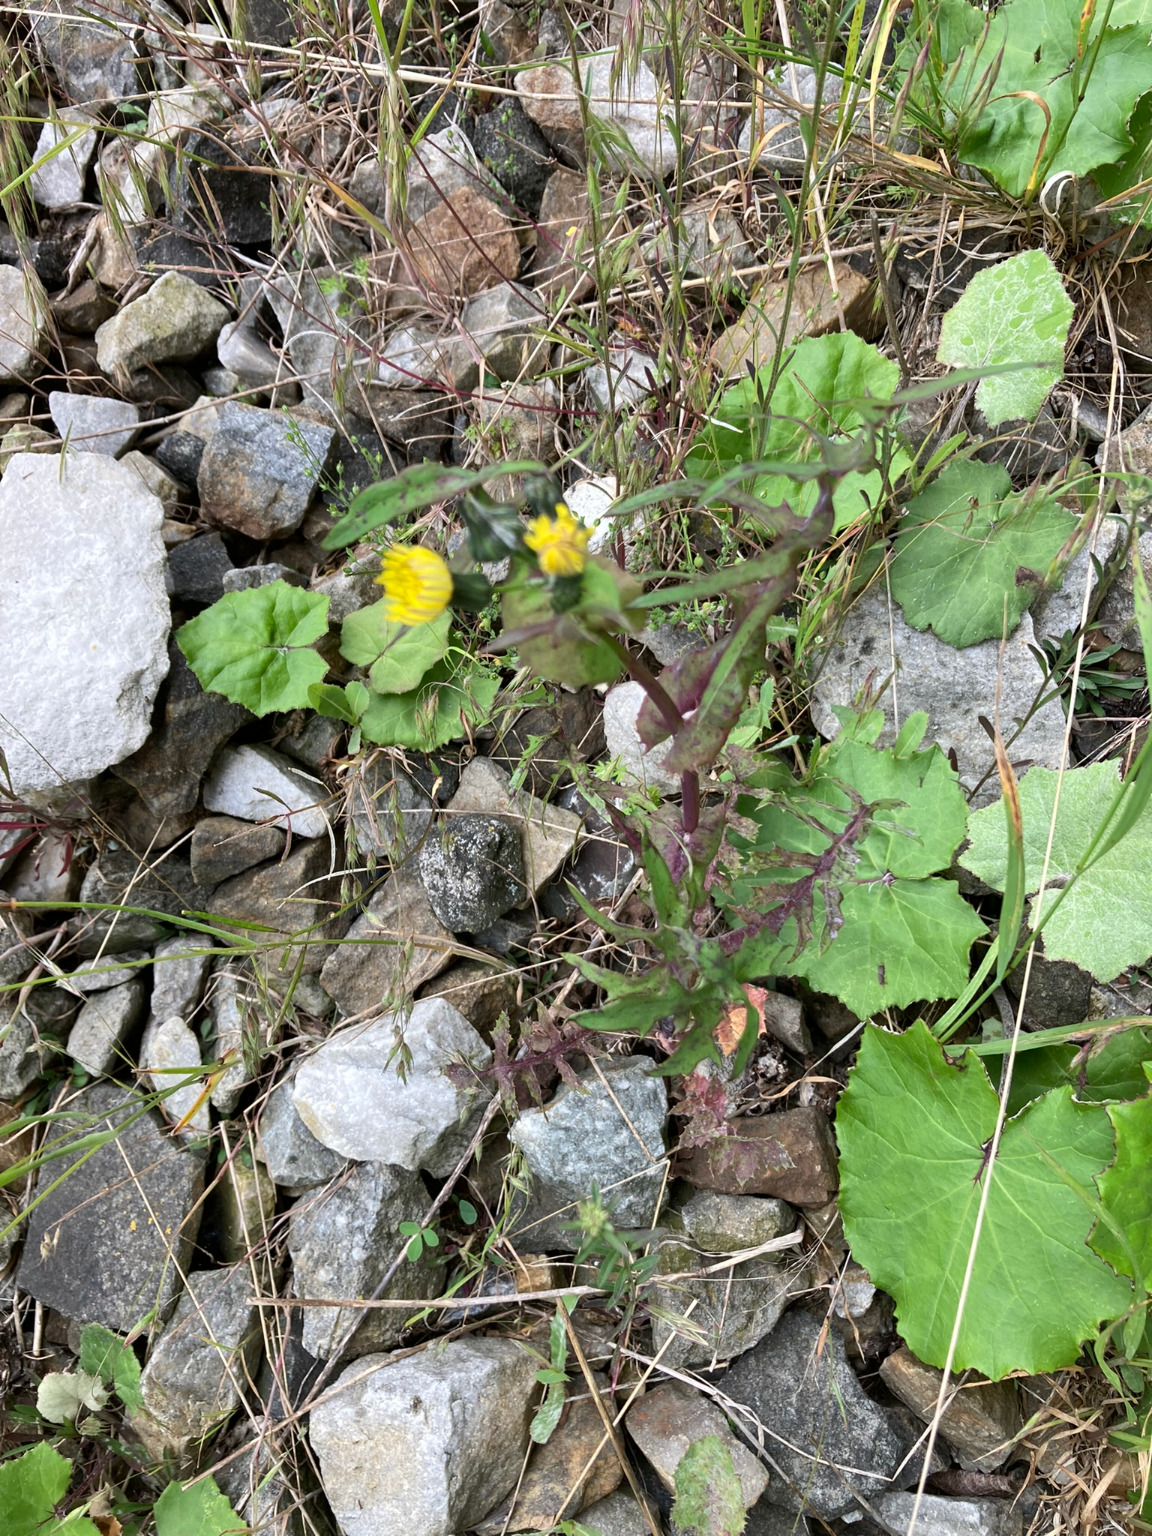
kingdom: Plantae
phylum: Tracheophyta
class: Magnoliopsida
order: Asterales
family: Asteraceae
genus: Sonchus
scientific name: Sonchus oleraceus
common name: Almindelig svinemælk
